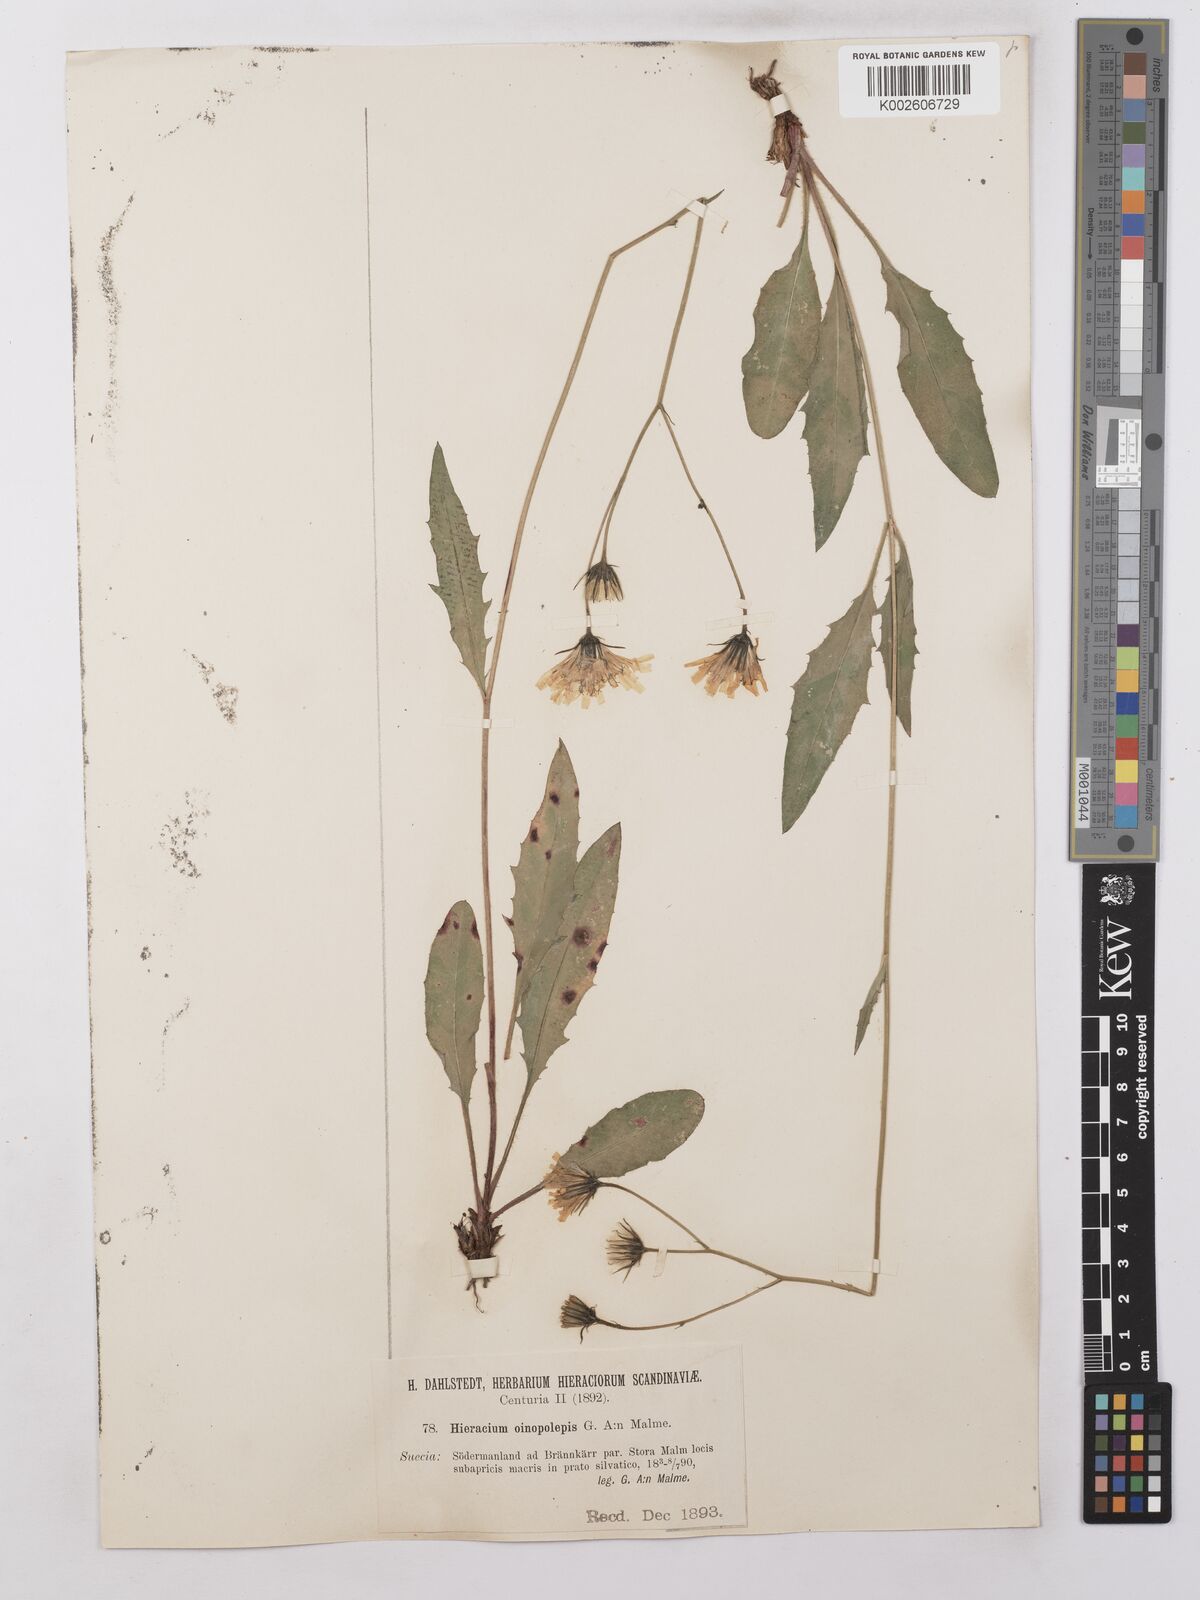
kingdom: Plantae
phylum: Tracheophyta
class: Magnoliopsida
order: Asterales
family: Asteraceae
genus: Hieracium
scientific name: Hieracium lachenalii
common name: Common hawkweed
